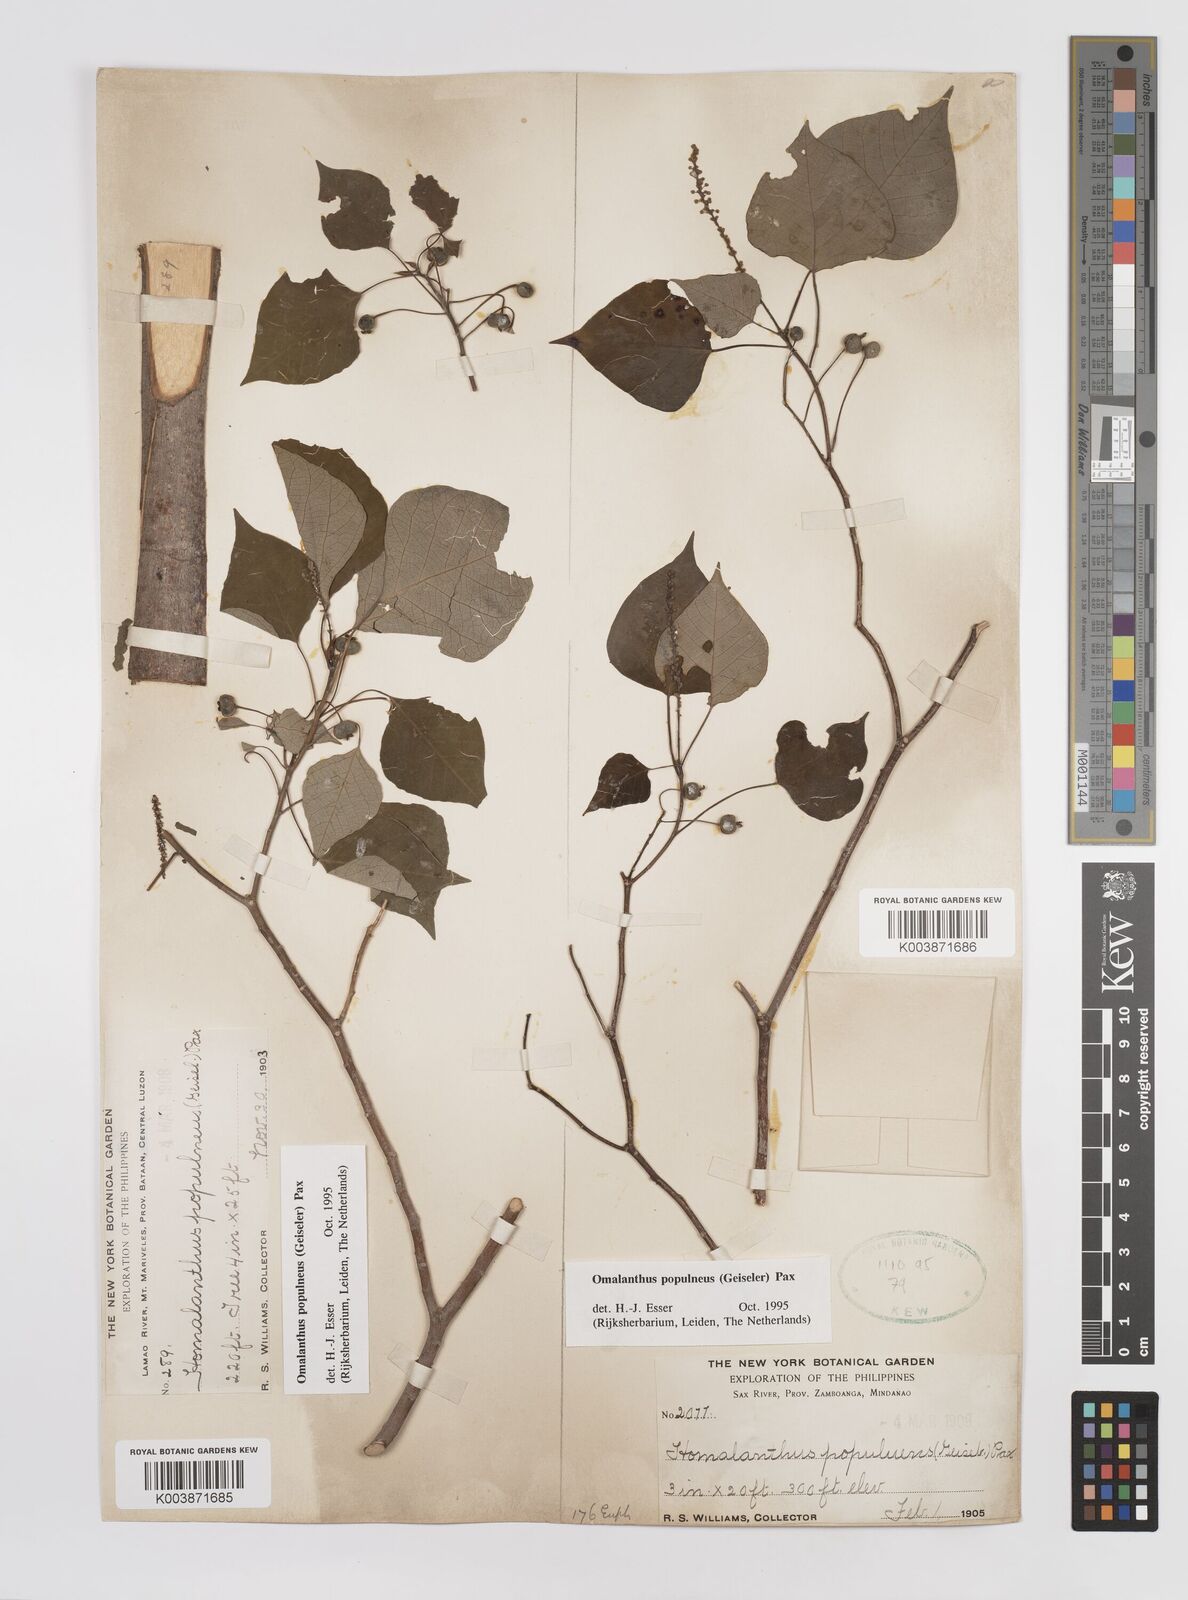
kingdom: Plantae
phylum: Tracheophyta
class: Magnoliopsida
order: Malpighiales
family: Euphorbiaceae
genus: Homalanthus
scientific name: Homalanthus populneus
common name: Spurge
